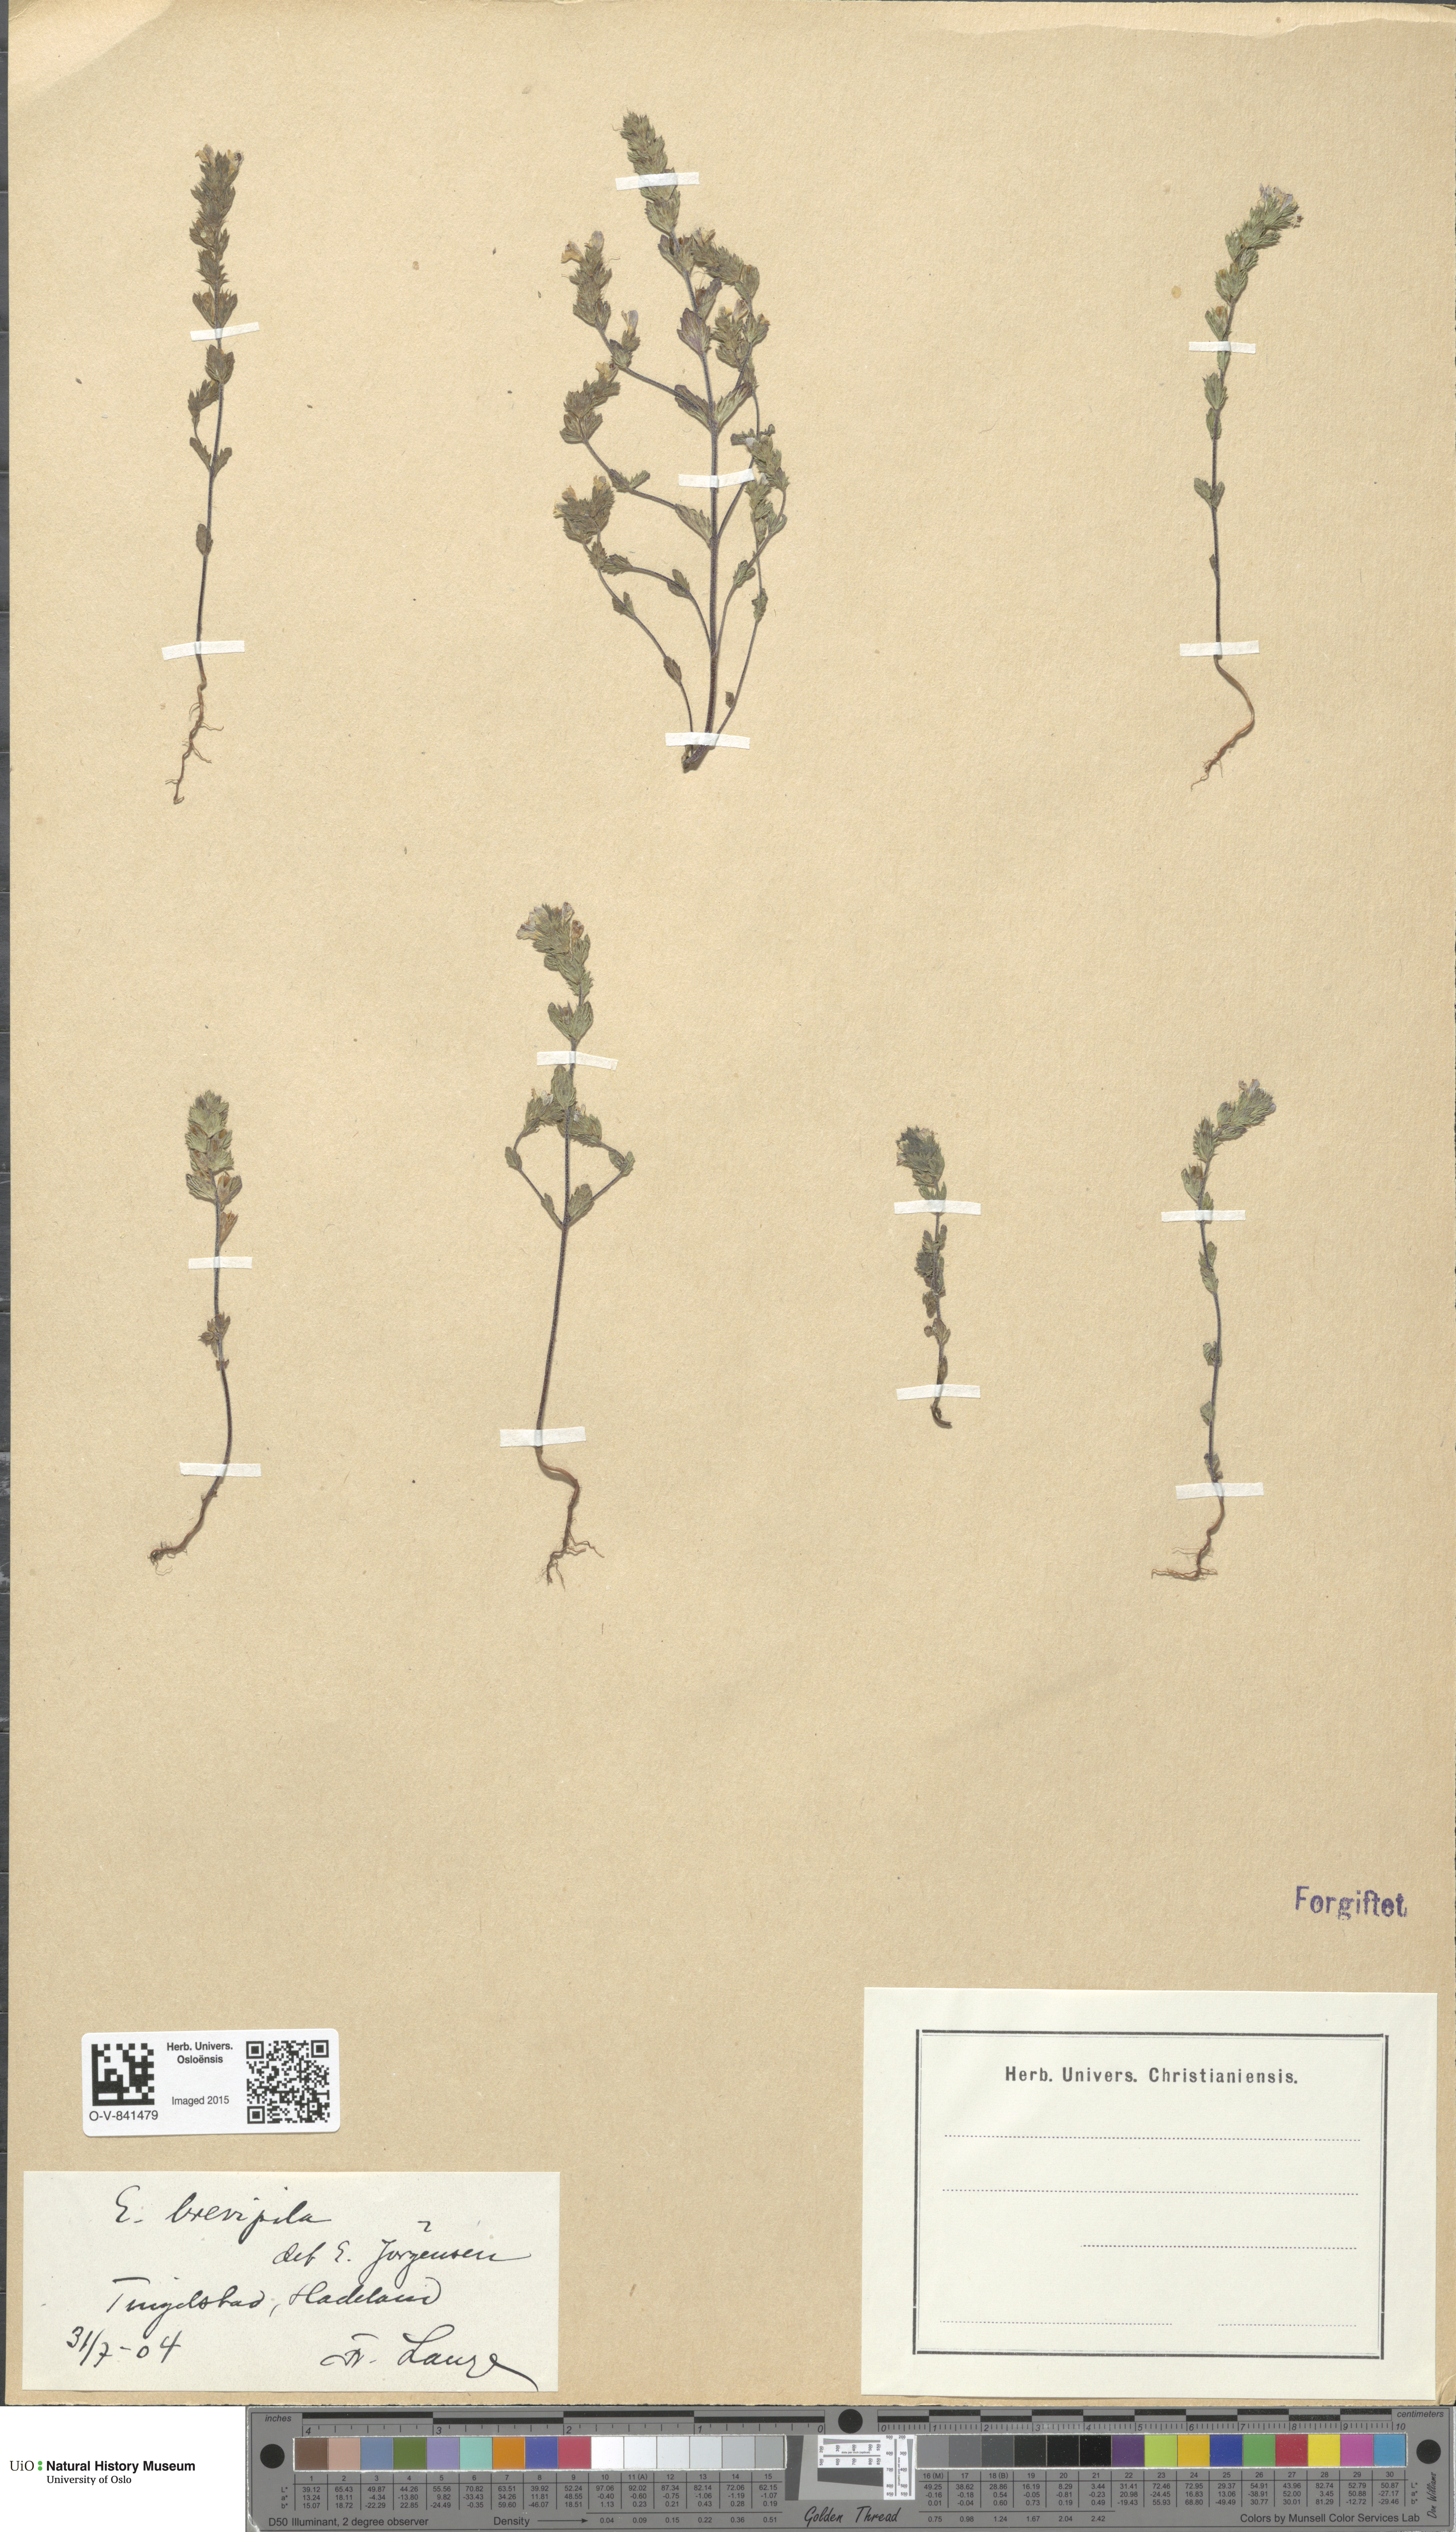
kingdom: Plantae
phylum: Tracheophyta
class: Magnoliopsida
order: Lamiales
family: Orobanchaceae
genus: Euphrasia
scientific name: Euphrasia vernalis
